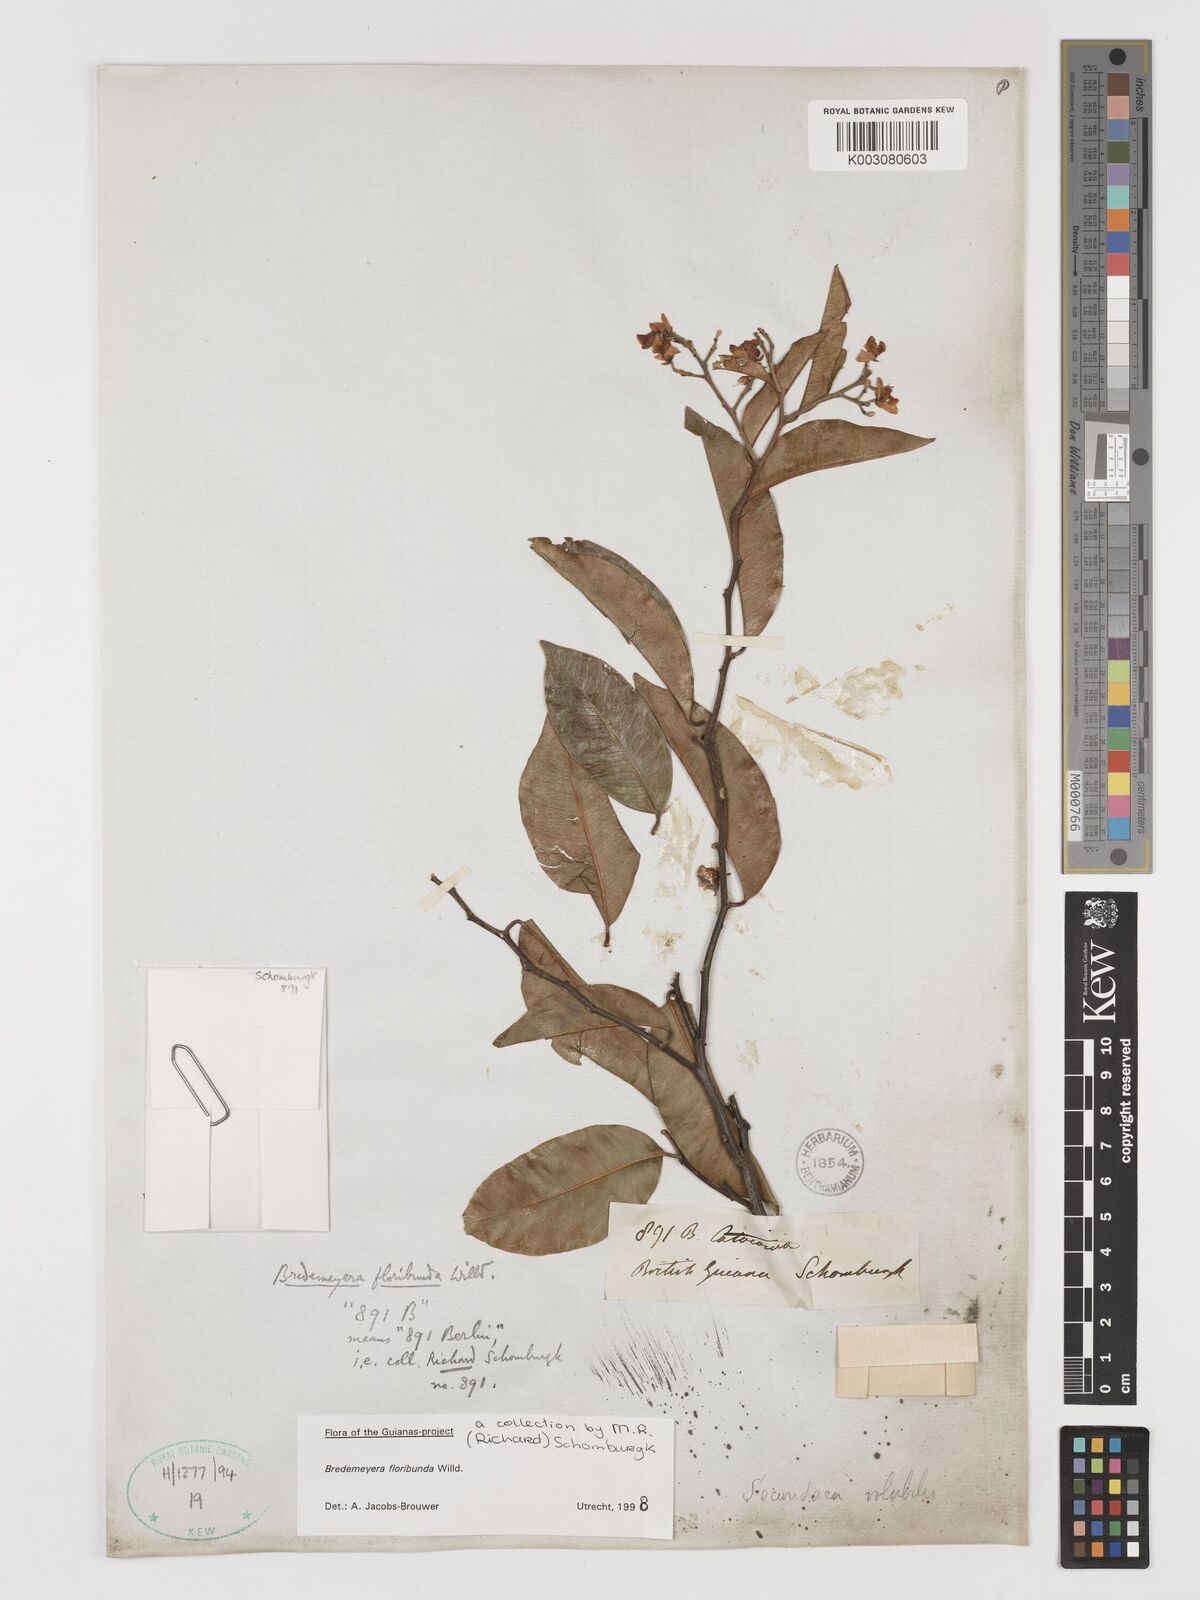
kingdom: Plantae
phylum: Tracheophyta
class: Magnoliopsida
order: Fabales
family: Polygalaceae
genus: Bredemeyera
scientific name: Bredemeyera floribunda
